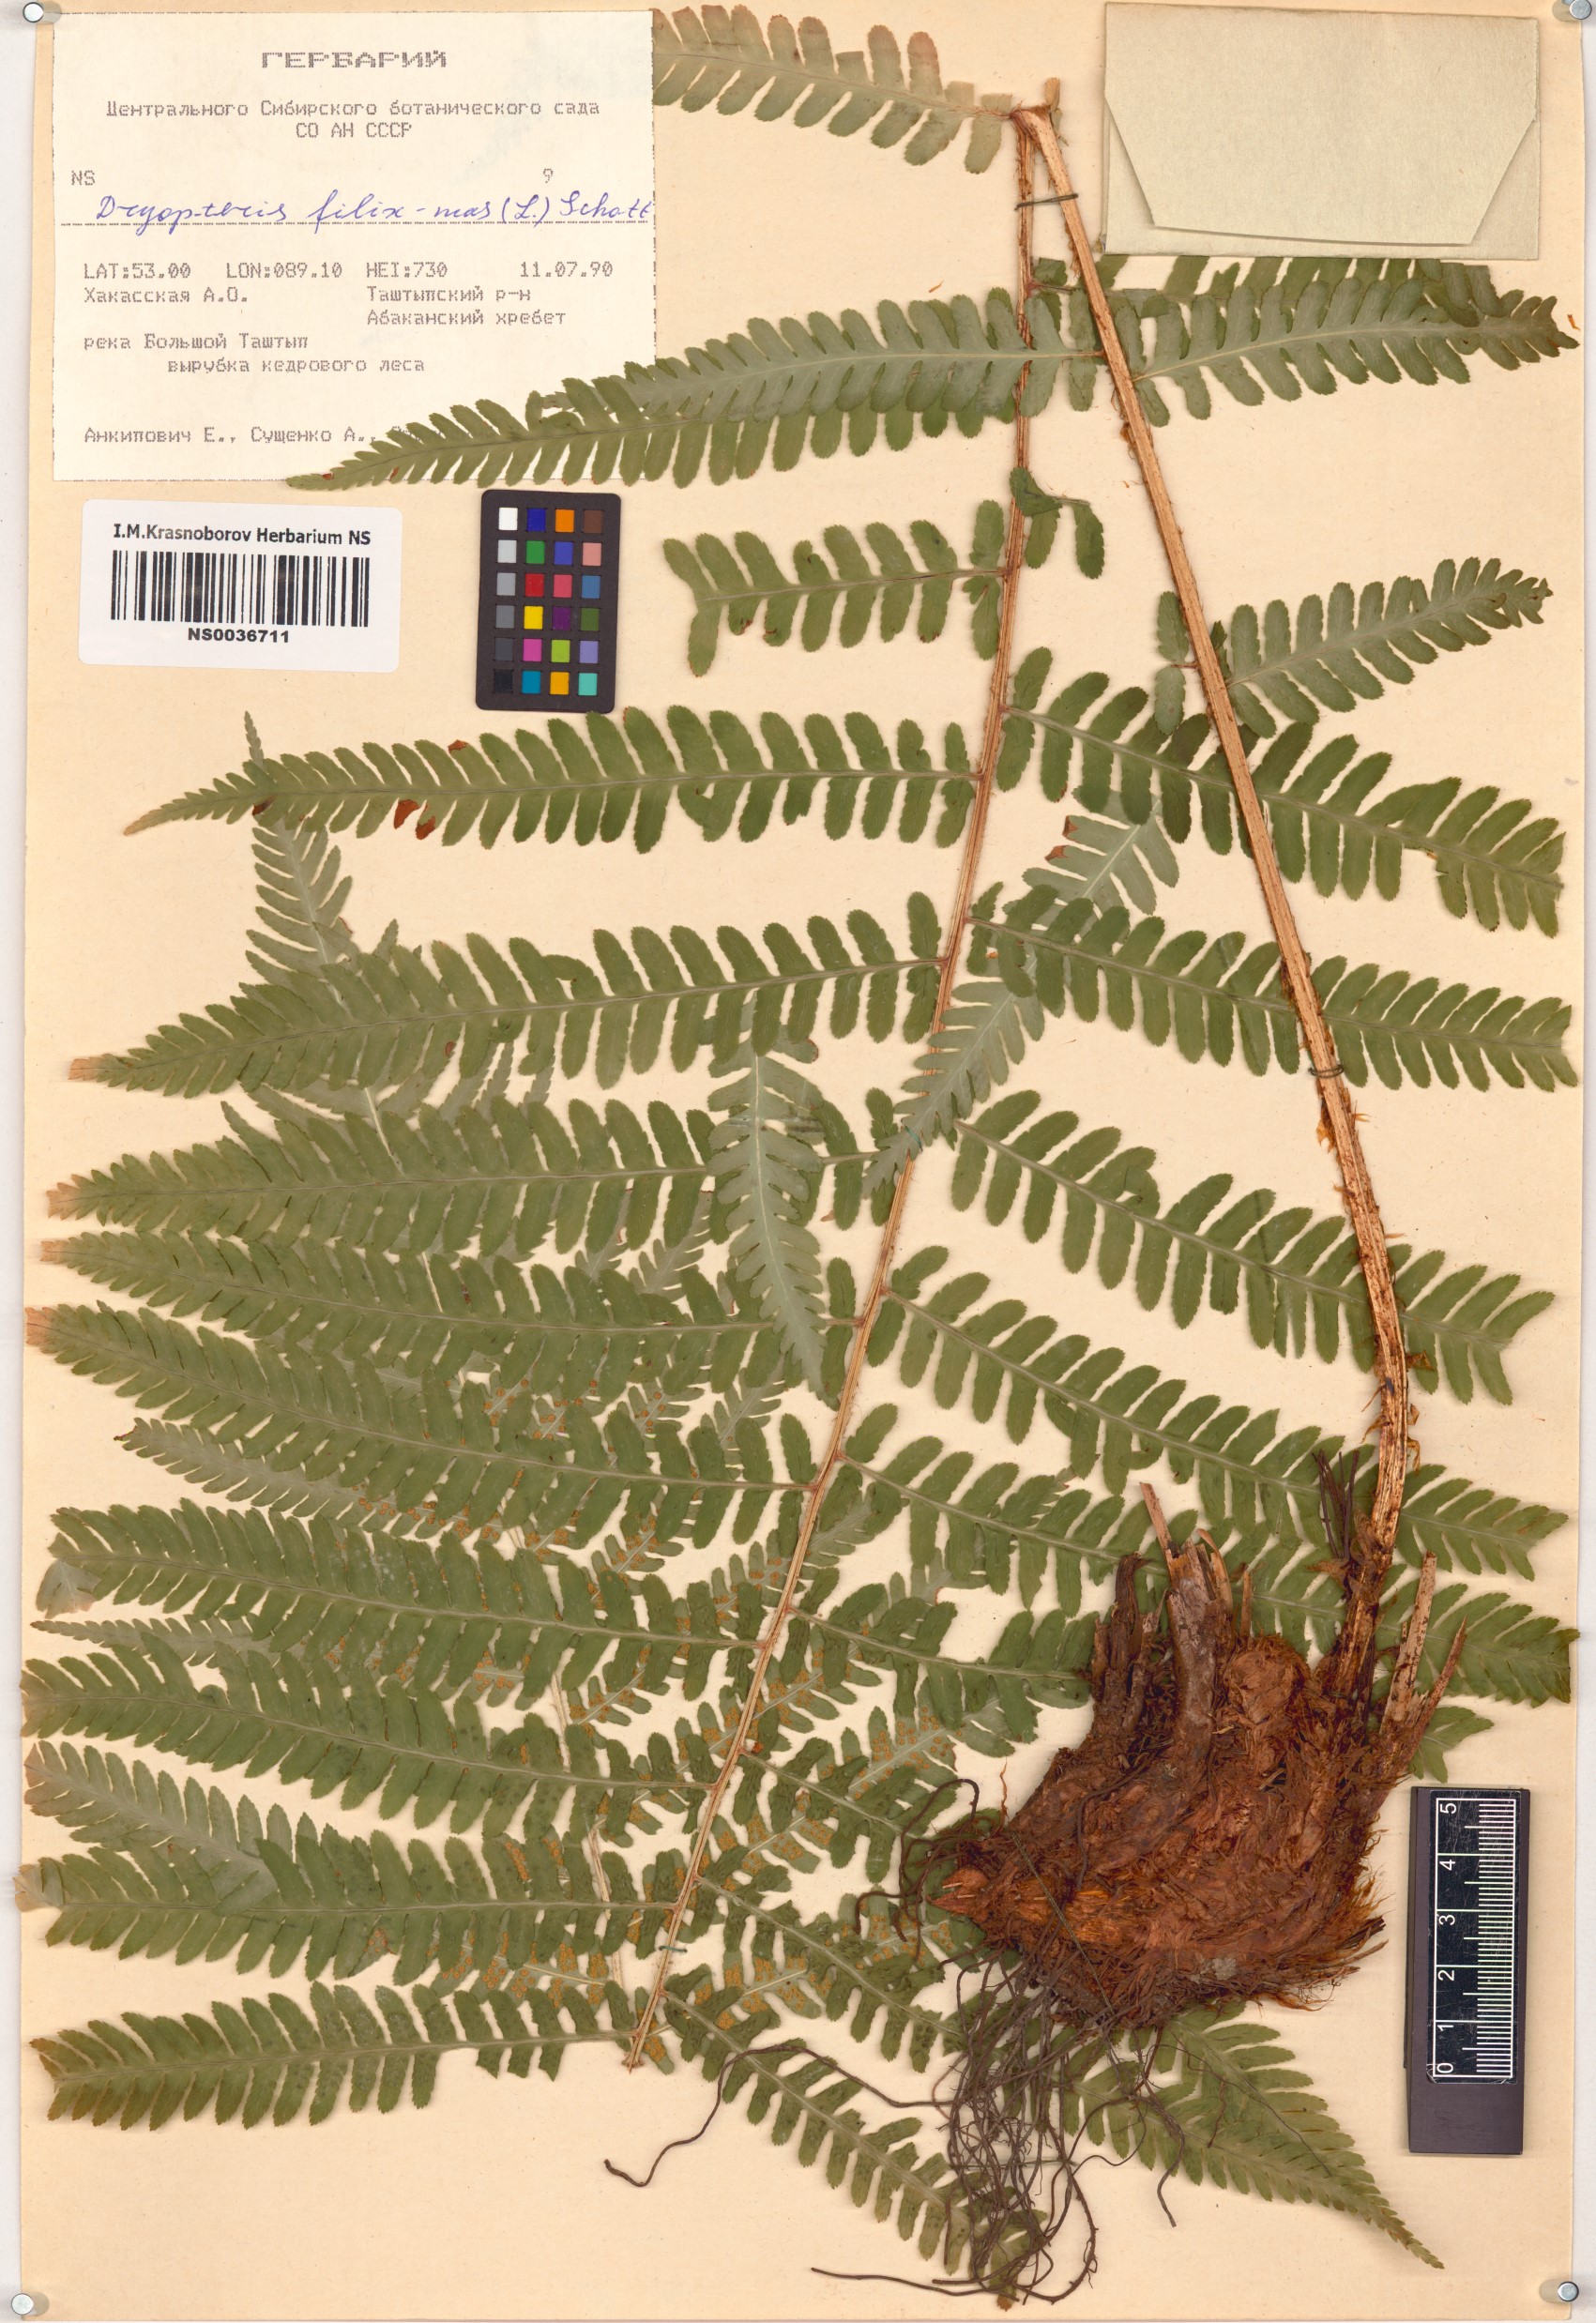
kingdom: Plantae
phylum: Tracheophyta
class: Polypodiopsida
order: Polypodiales
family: Dryopteridaceae
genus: Dryopteris
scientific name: Dryopteris filix-mas
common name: Male fern
